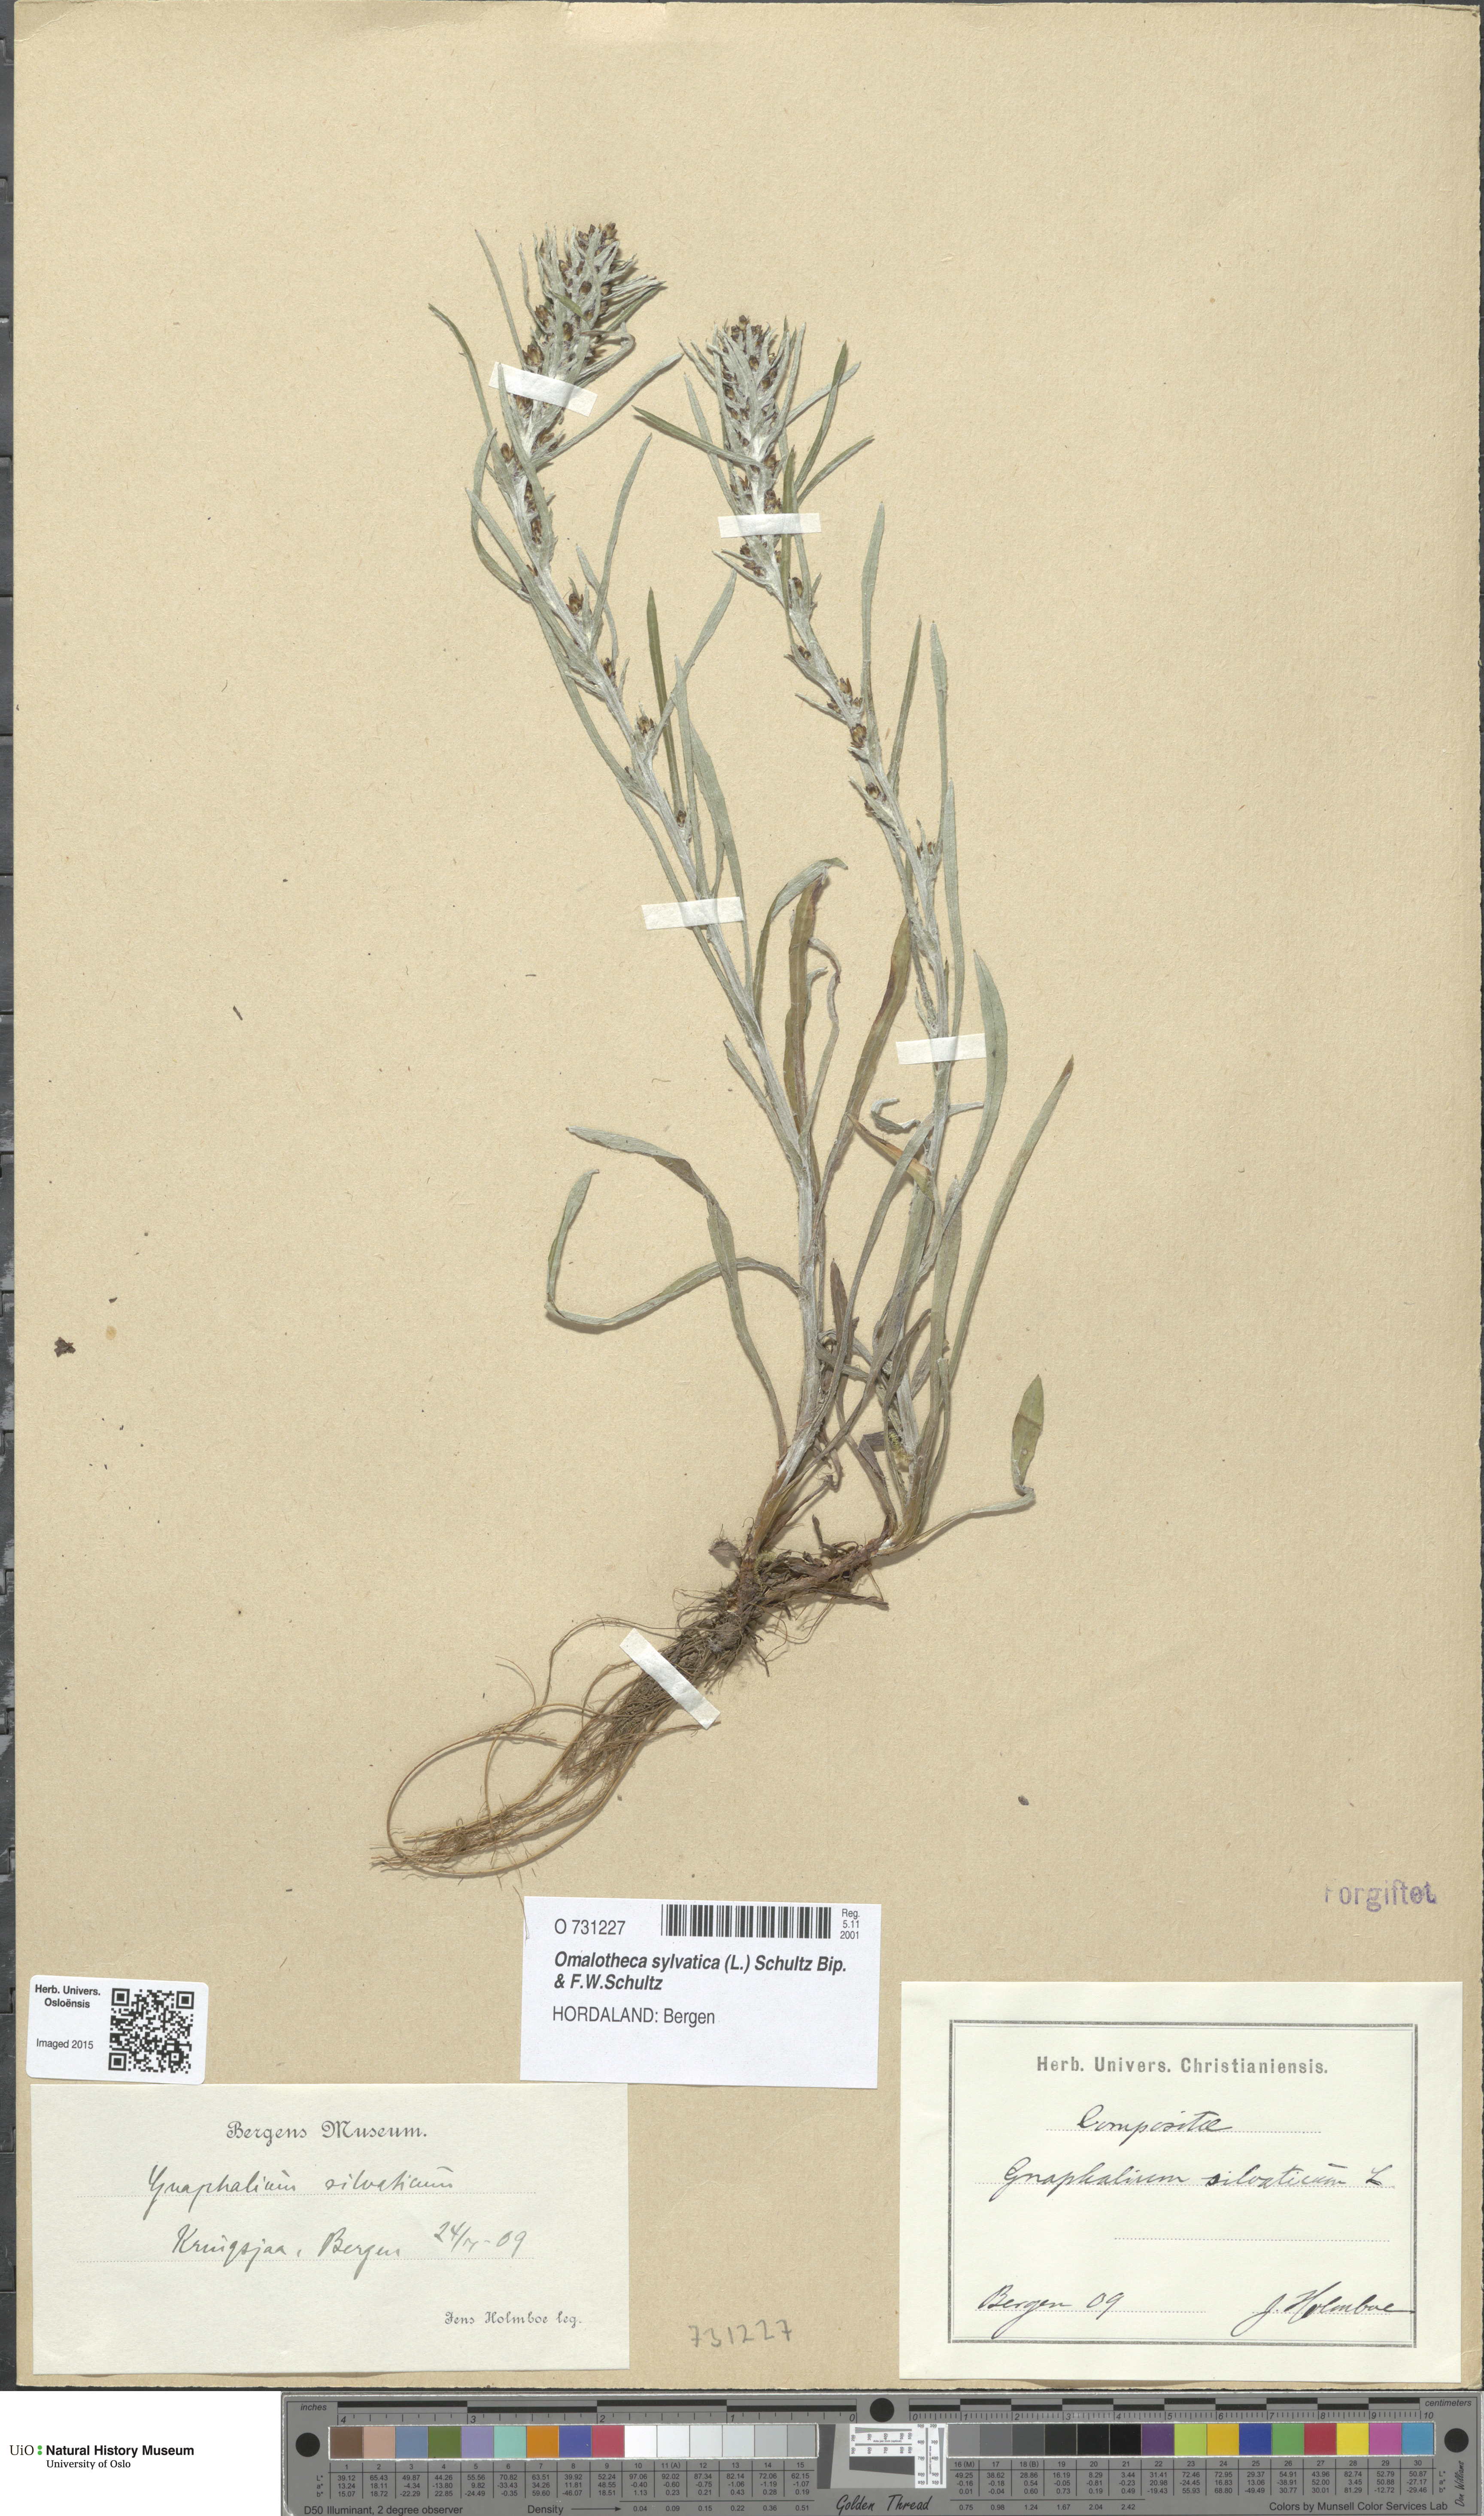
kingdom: Plantae
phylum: Tracheophyta
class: Magnoliopsida
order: Asterales
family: Asteraceae
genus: Omalotheca
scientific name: Omalotheca sylvatica
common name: Heath cudweed
